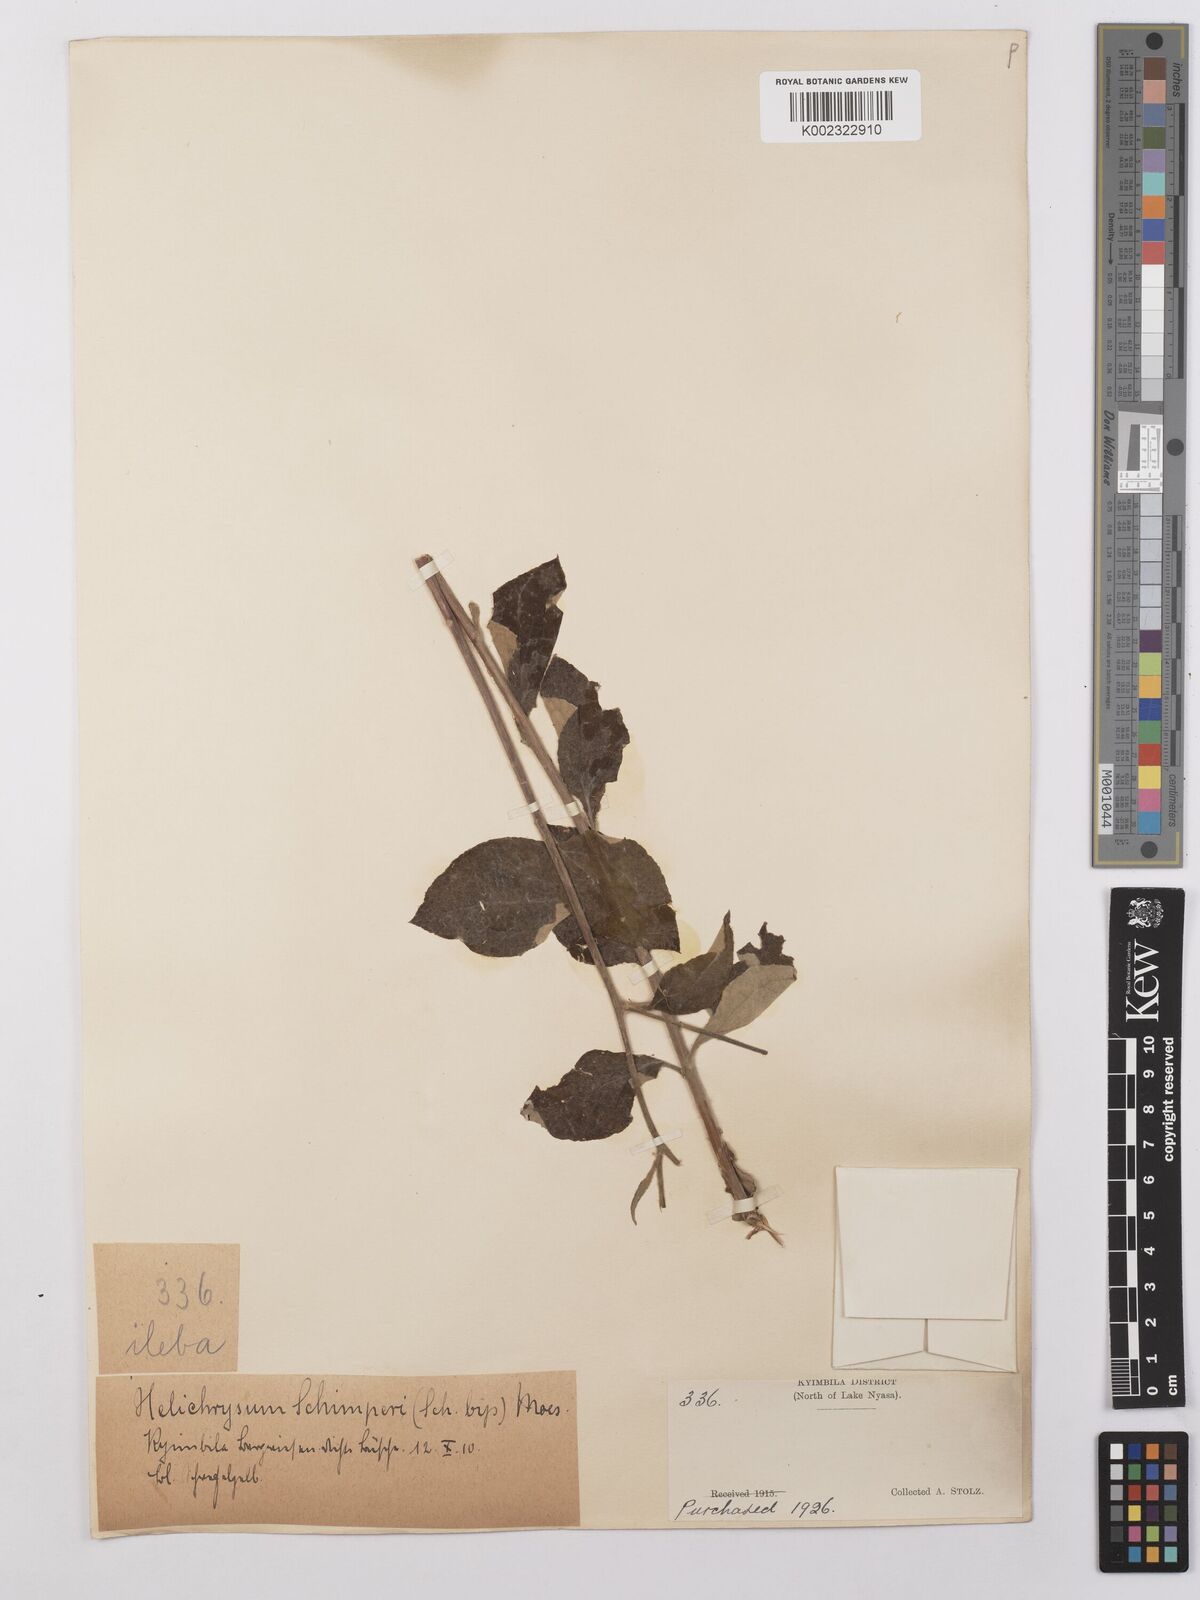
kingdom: Plantae
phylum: Tracheophyta
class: Magnoliopsida
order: Asterales
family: Asteraceae
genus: Helichrysum
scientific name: Helichrysum schimperi
